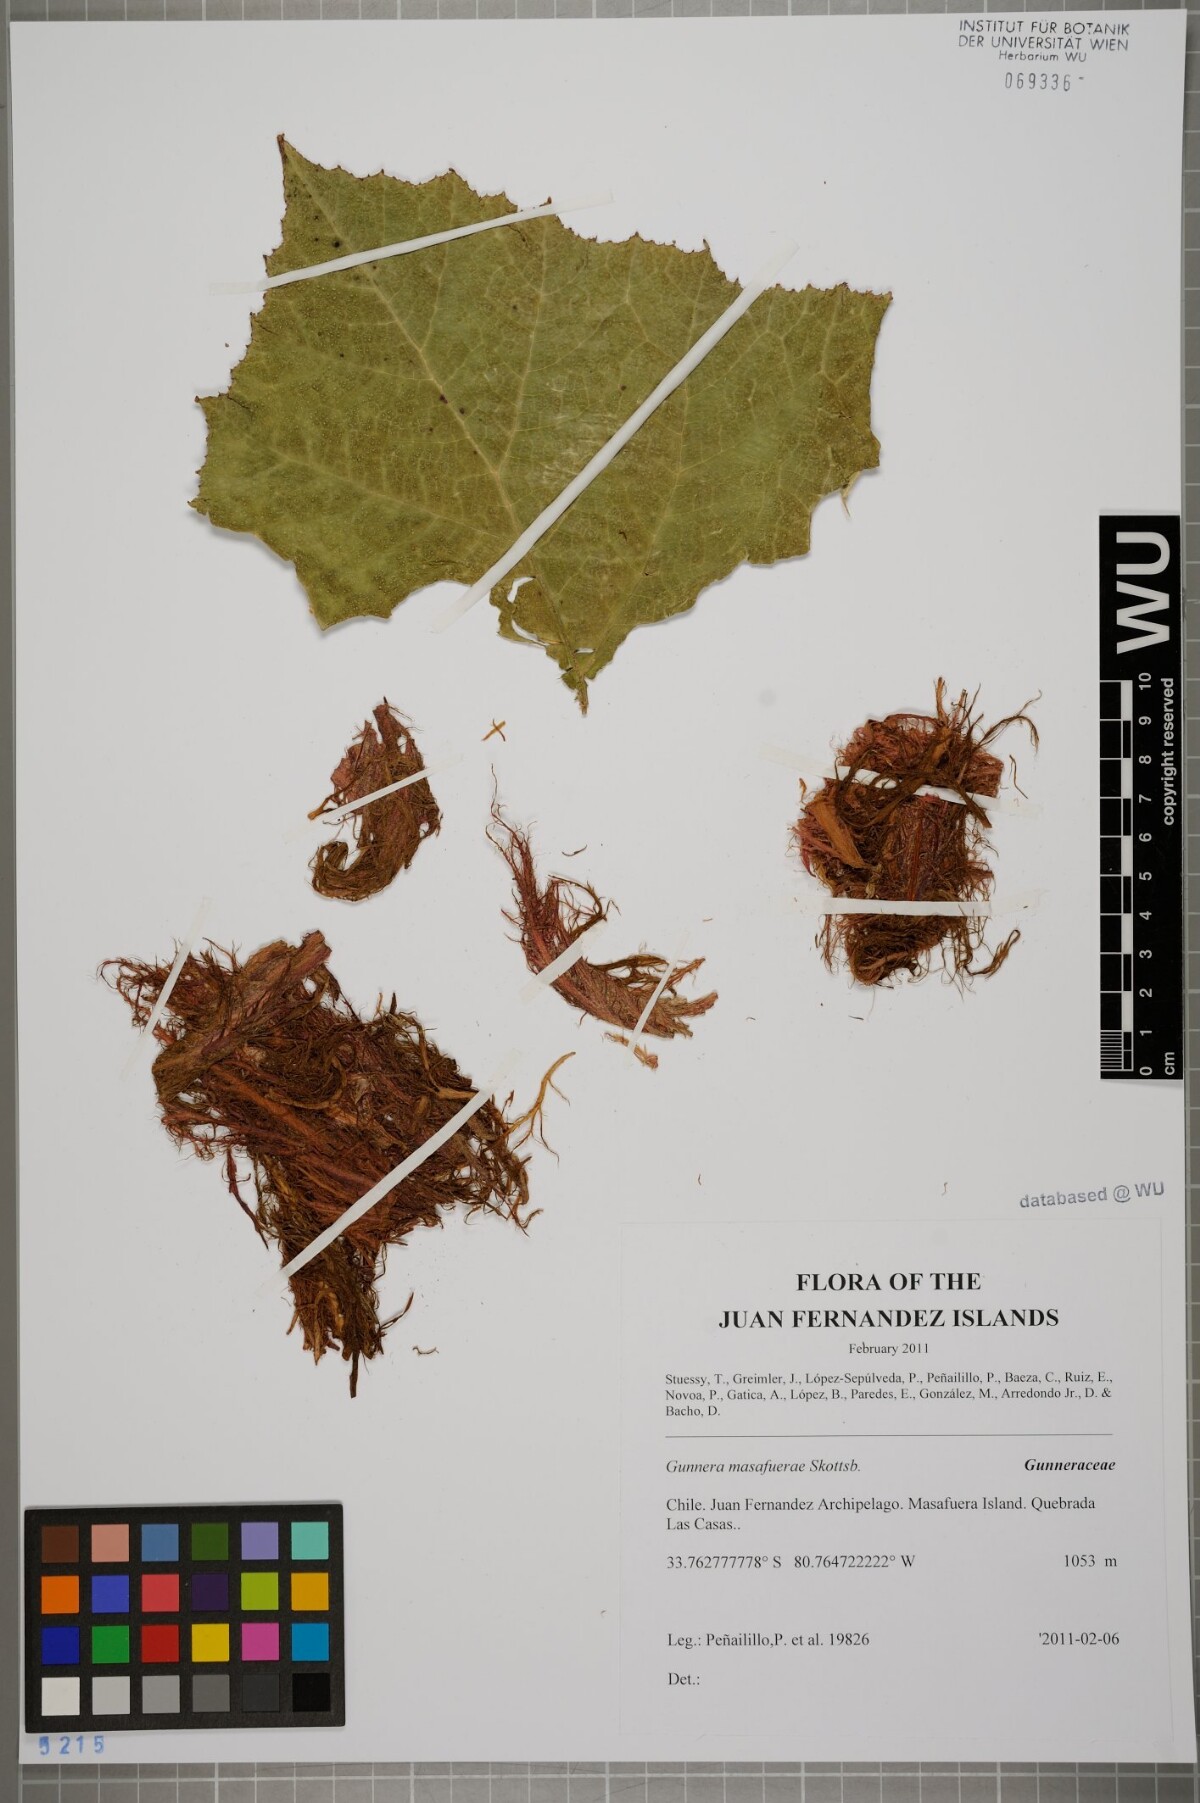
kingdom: Plantae
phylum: Tracheophyta
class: Magnoliopsida
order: Gunnerales
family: Gunneraceae
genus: Gunnera
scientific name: Gunnera masafuerae
